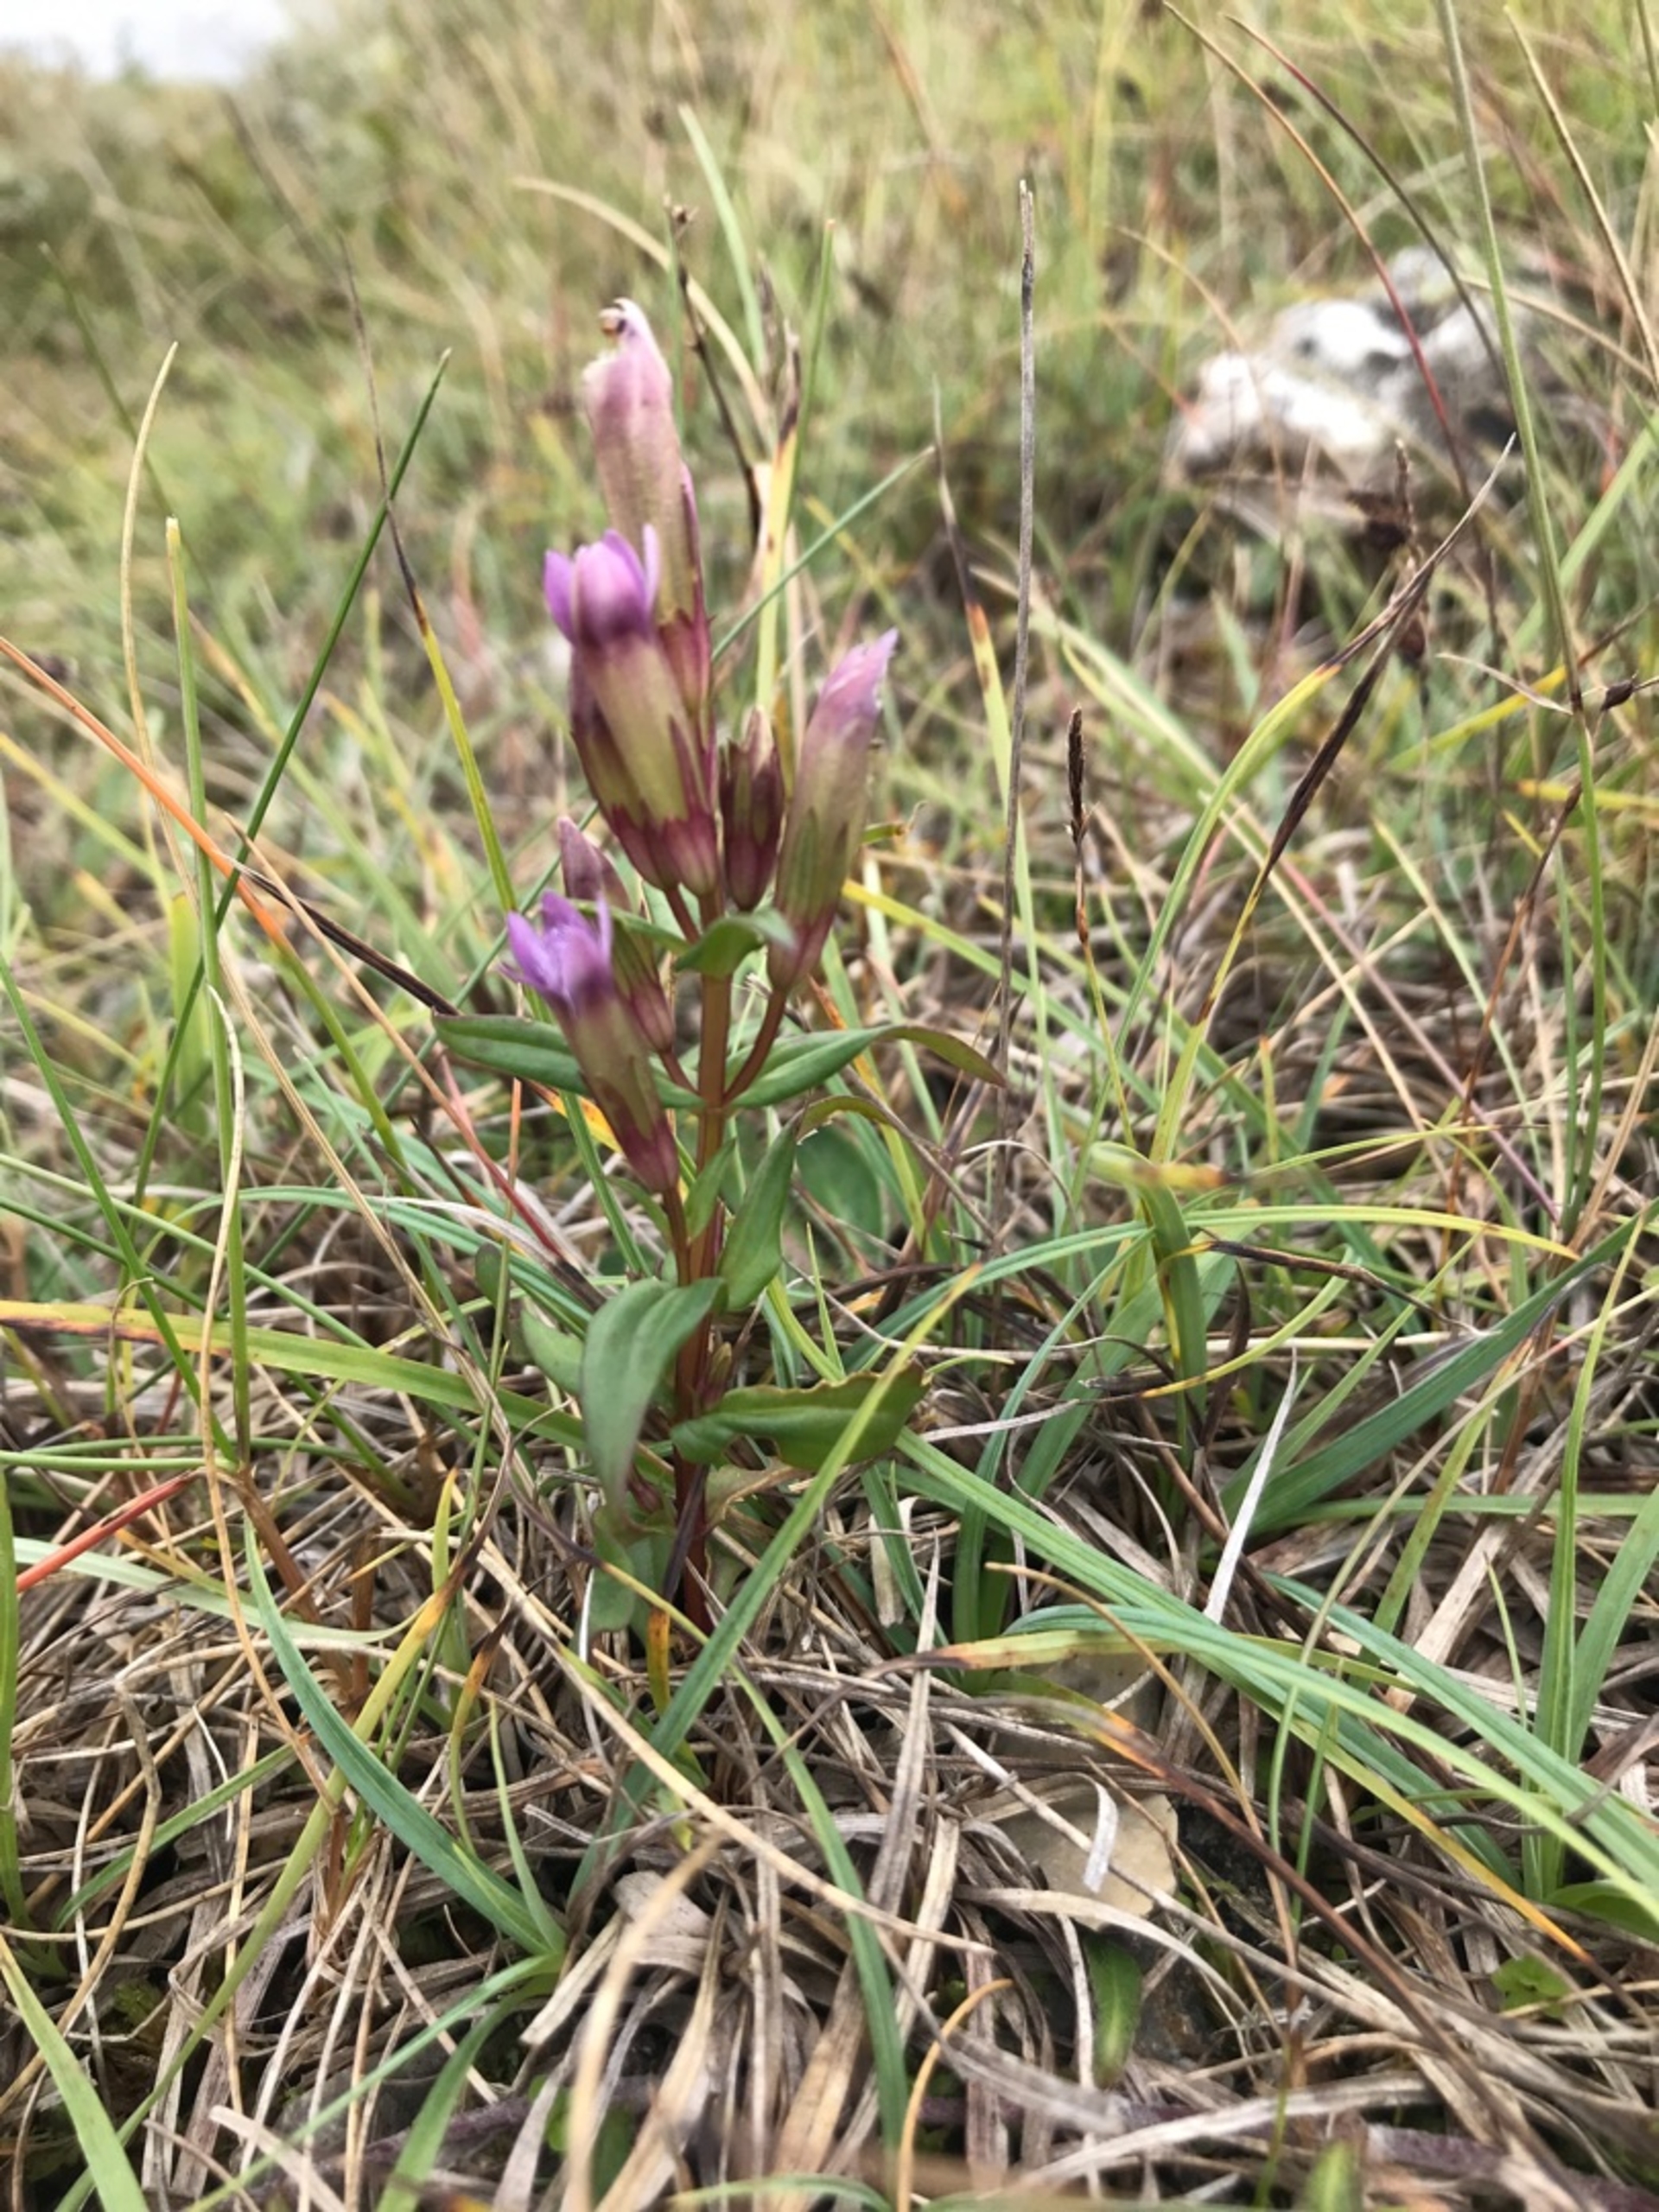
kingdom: Plantae
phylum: Tracheophyta
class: Magnoliopsida
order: Gentianales
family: Gentianaceae
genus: Gentianella
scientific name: Gentianella amarella
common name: Smalbægret ensian
